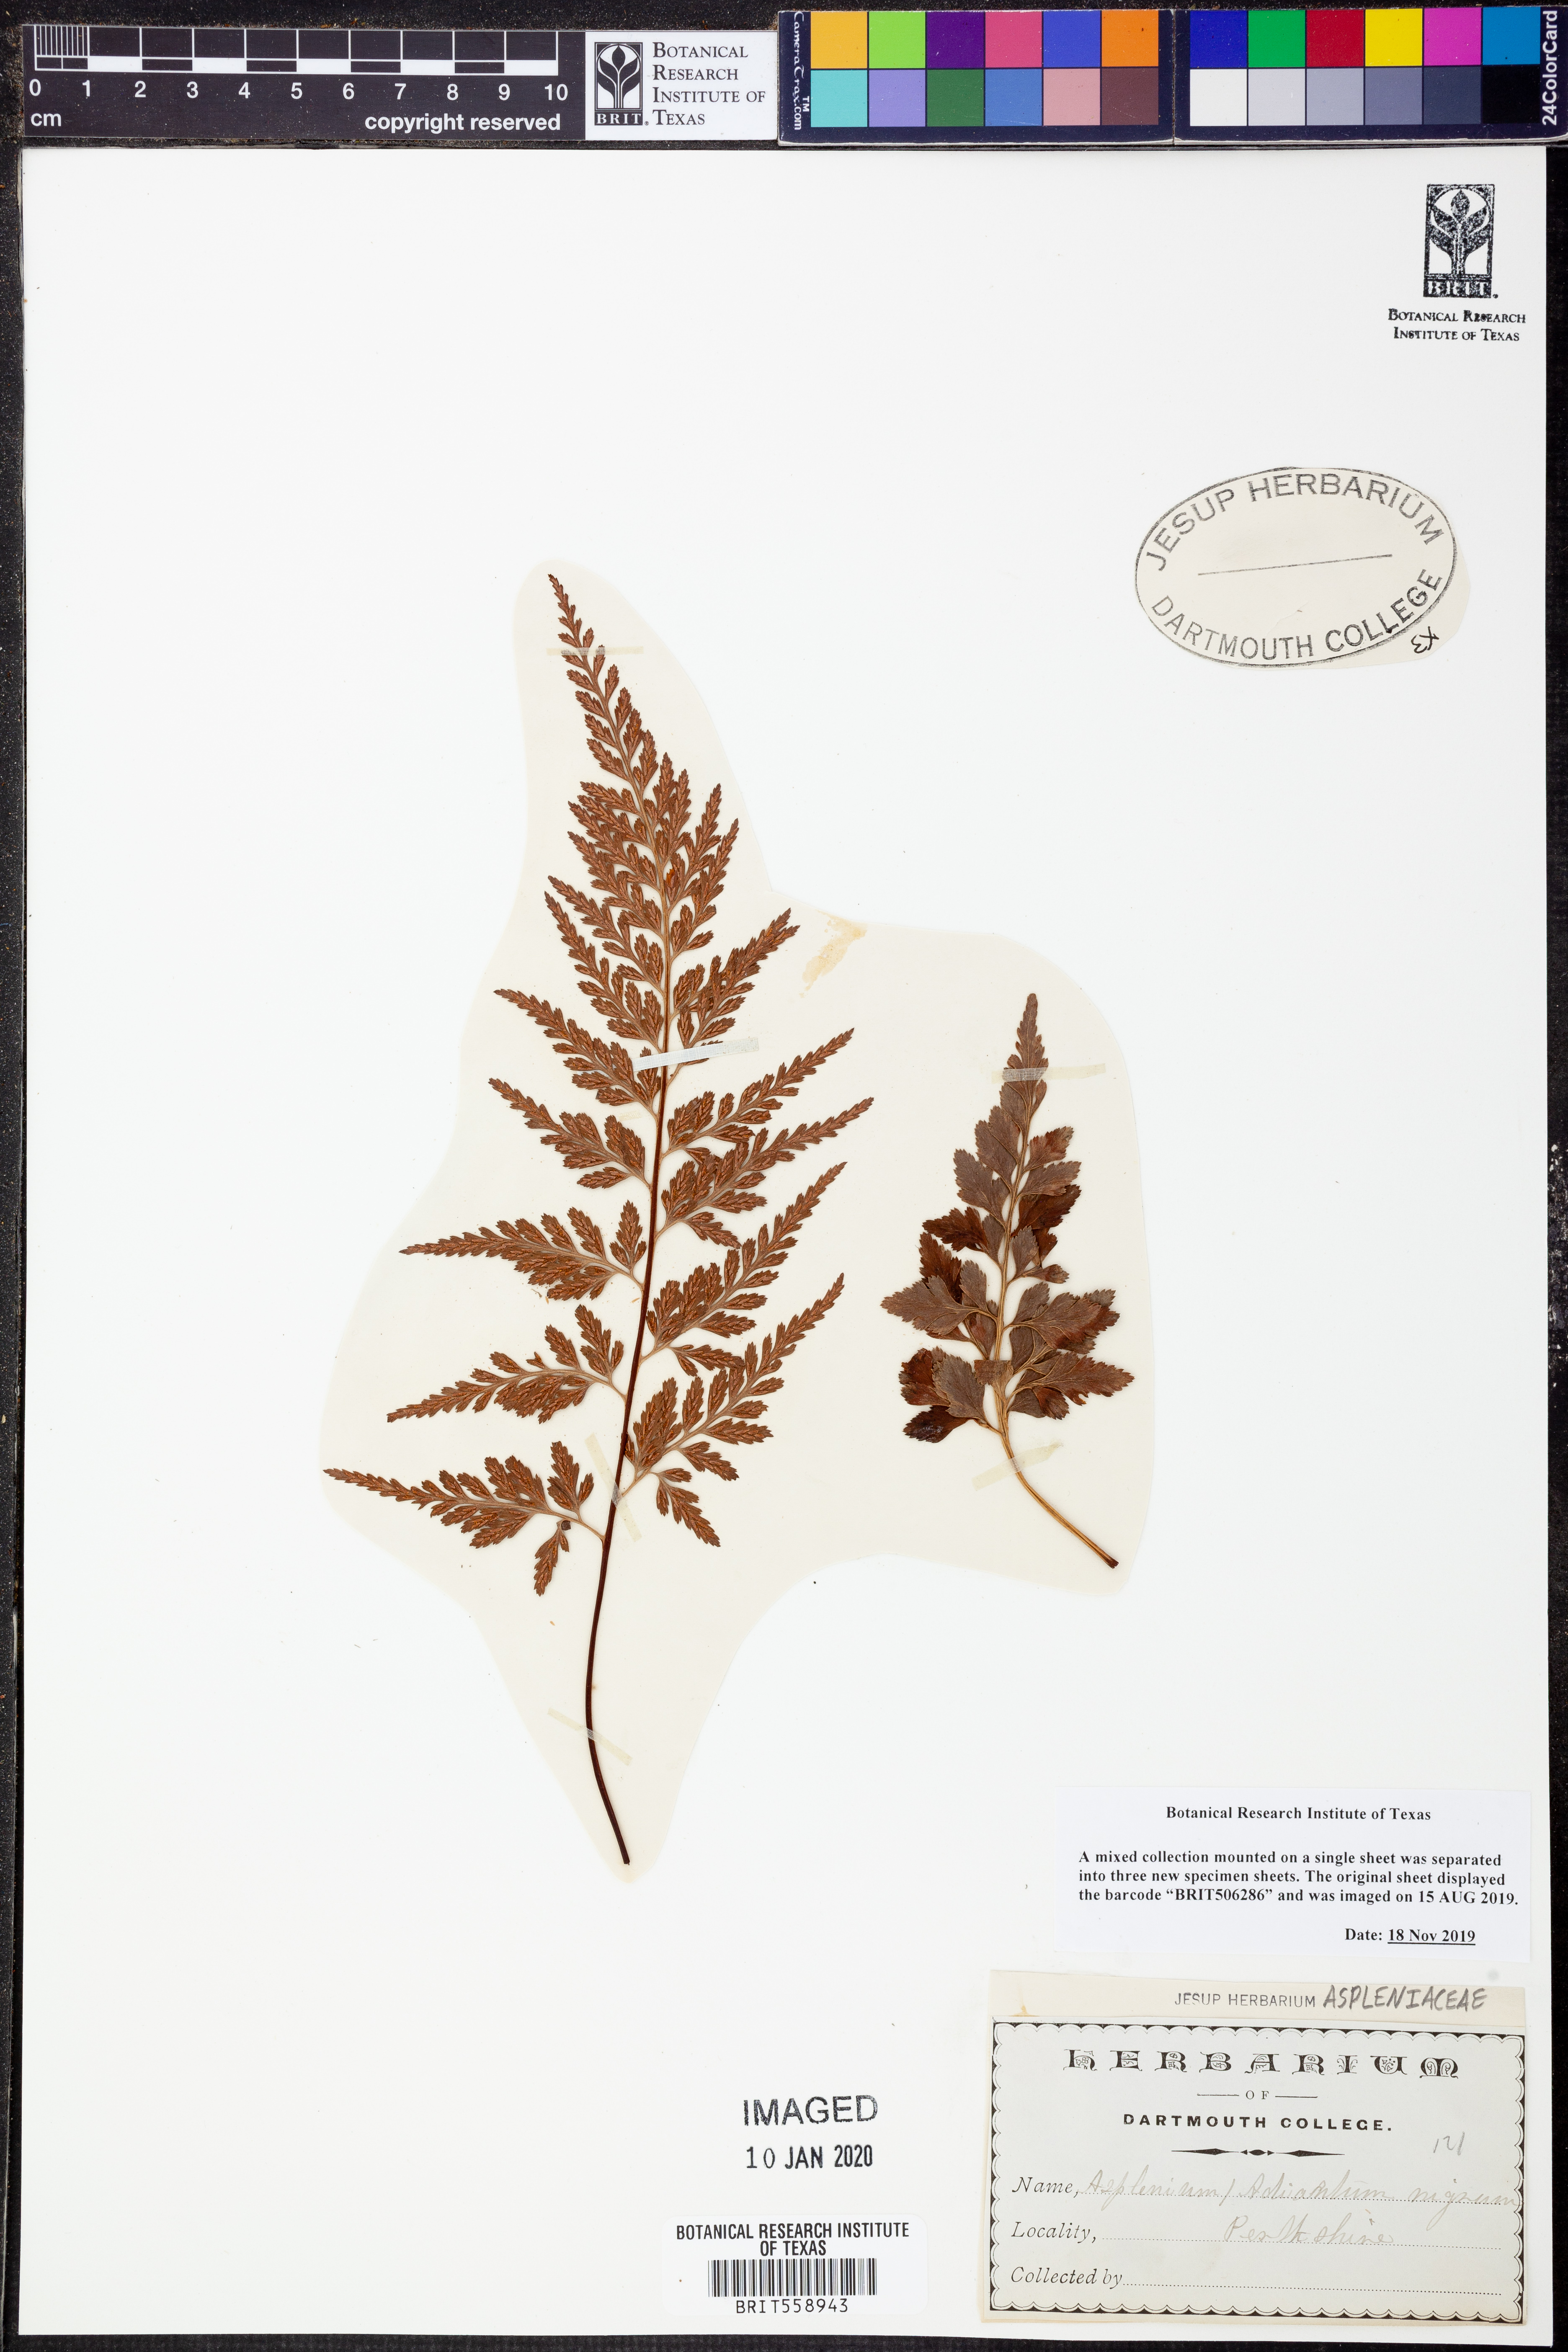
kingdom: Plantae
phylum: Tracheophyta
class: Polypodiopsida
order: Polypodiales
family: Aspleniaceae
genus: Asplenium
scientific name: Asplenium adiantum-nigrum
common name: Black spleenwort
